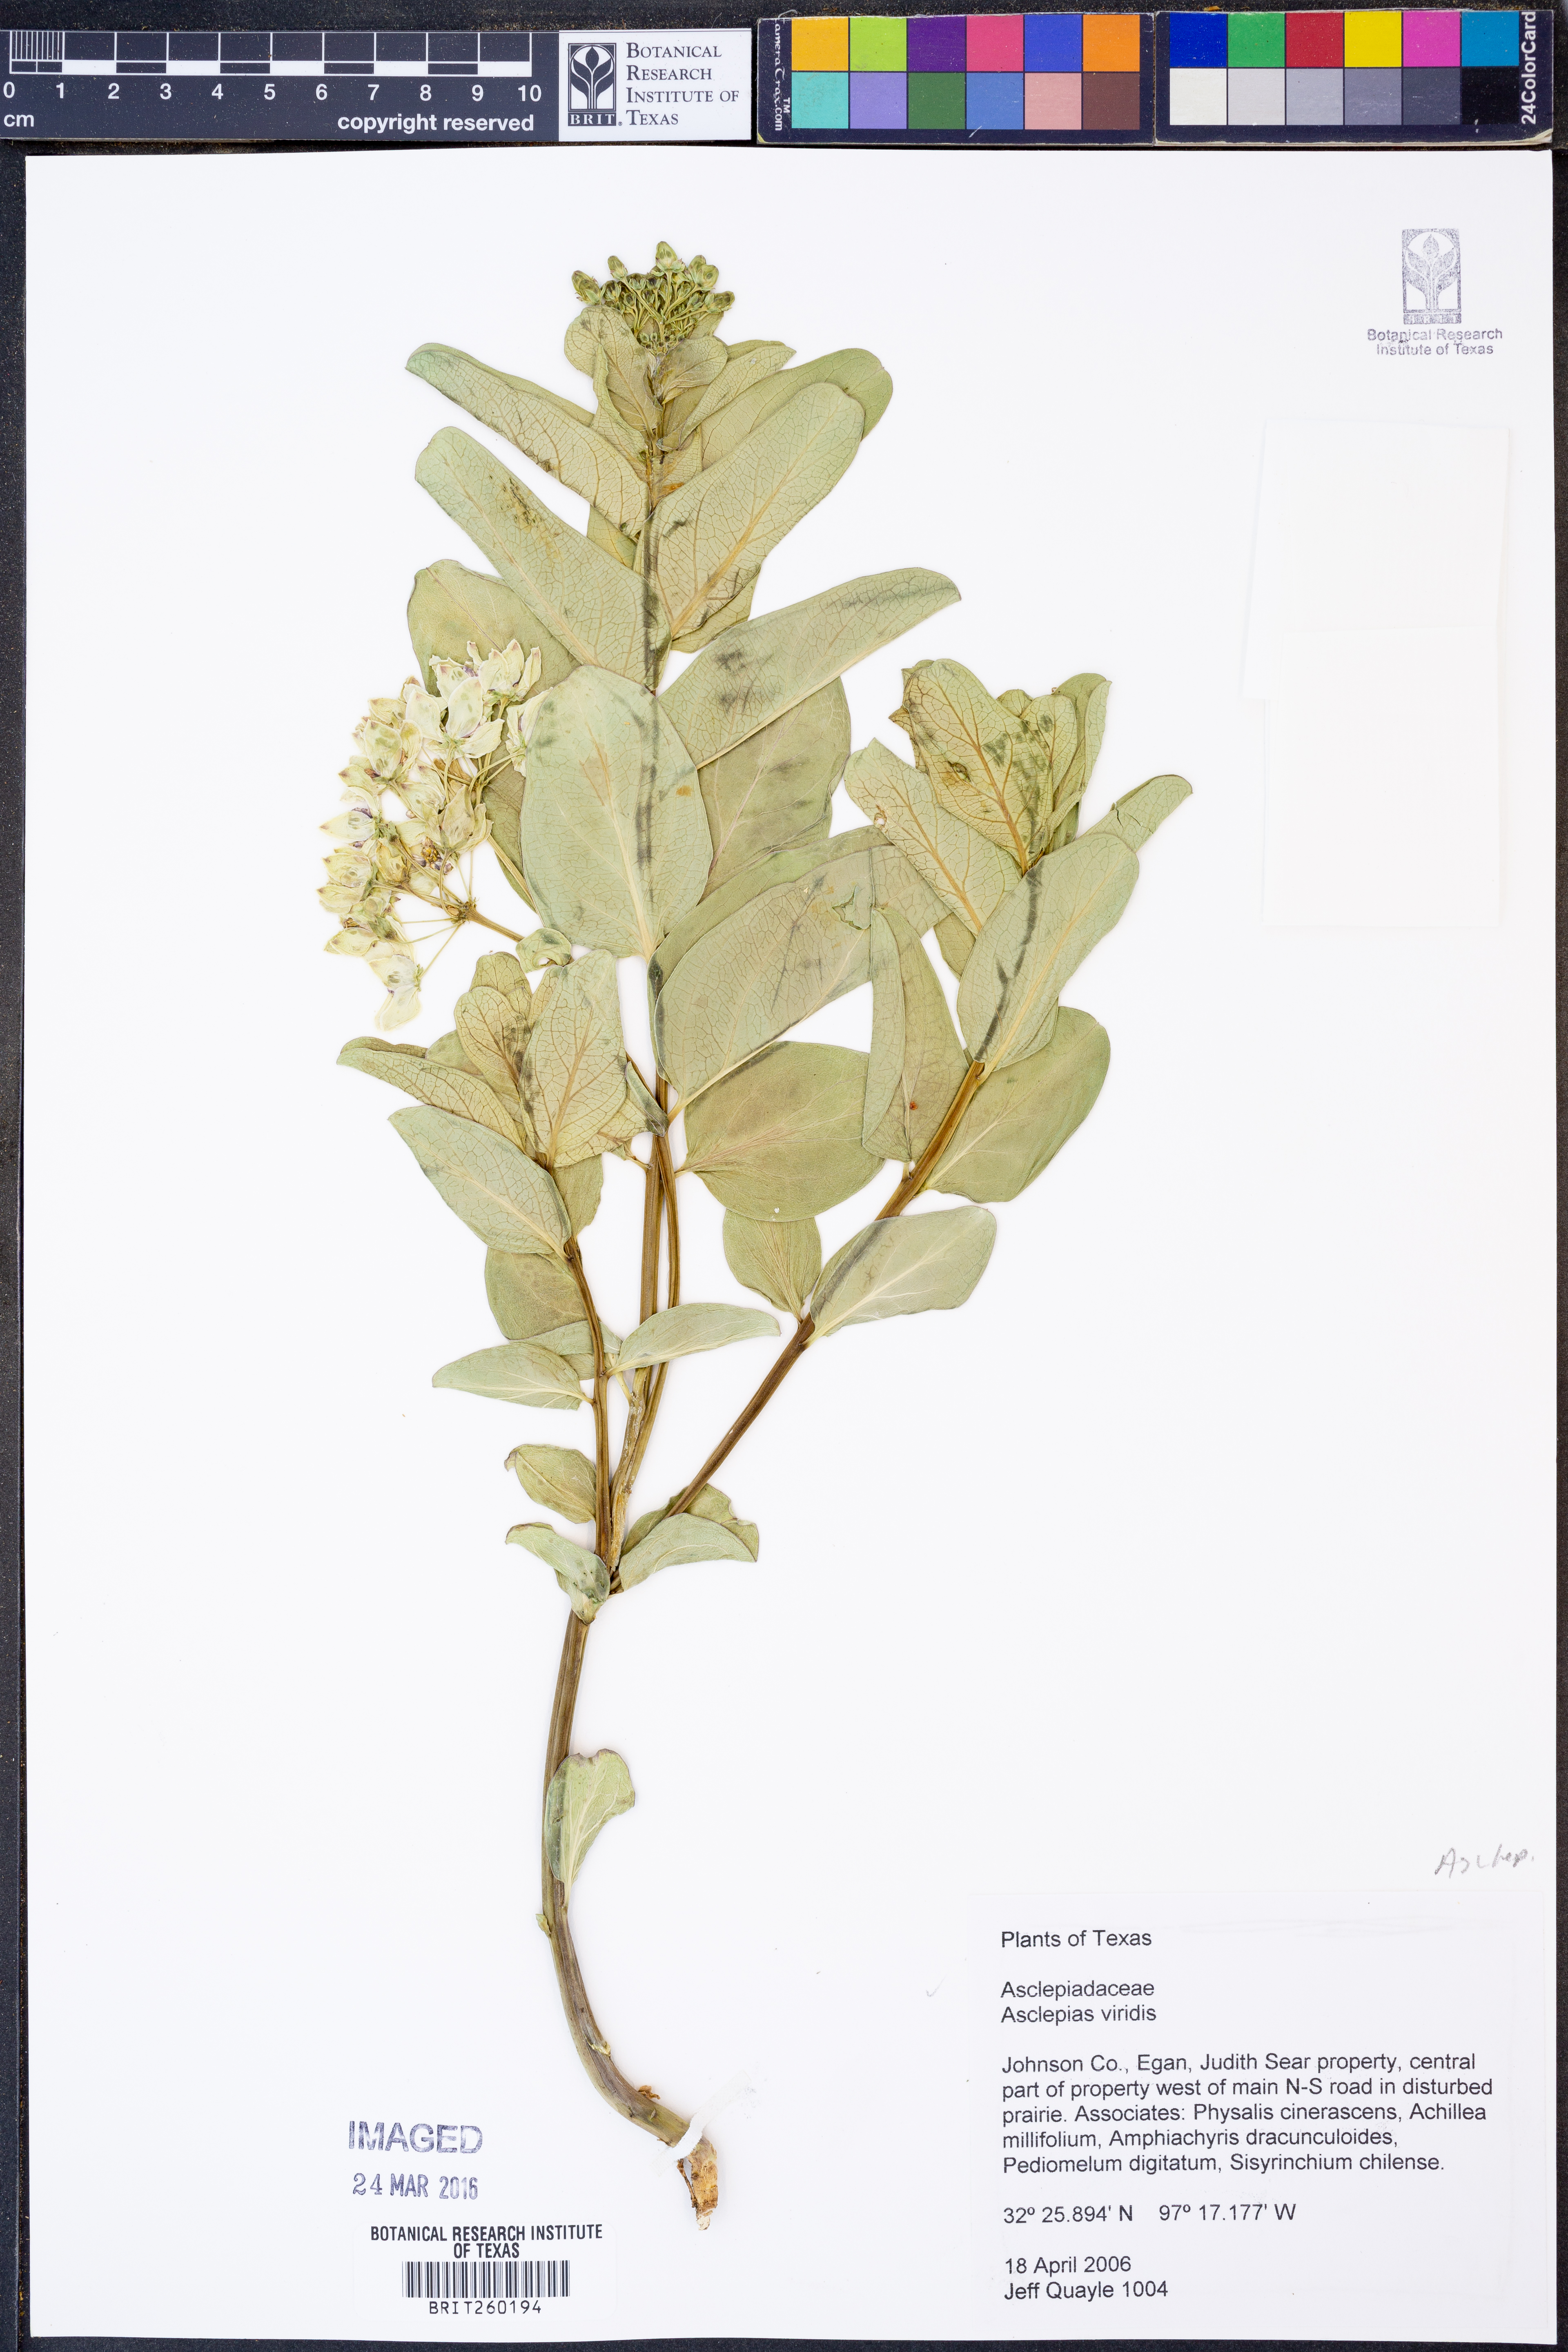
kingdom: Plantae
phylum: Tracheophyta
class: Magnoliopsida
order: Gentianales
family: Apocynaceae
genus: Asclepias
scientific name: Asclepias viridis
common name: Antelope-horns
